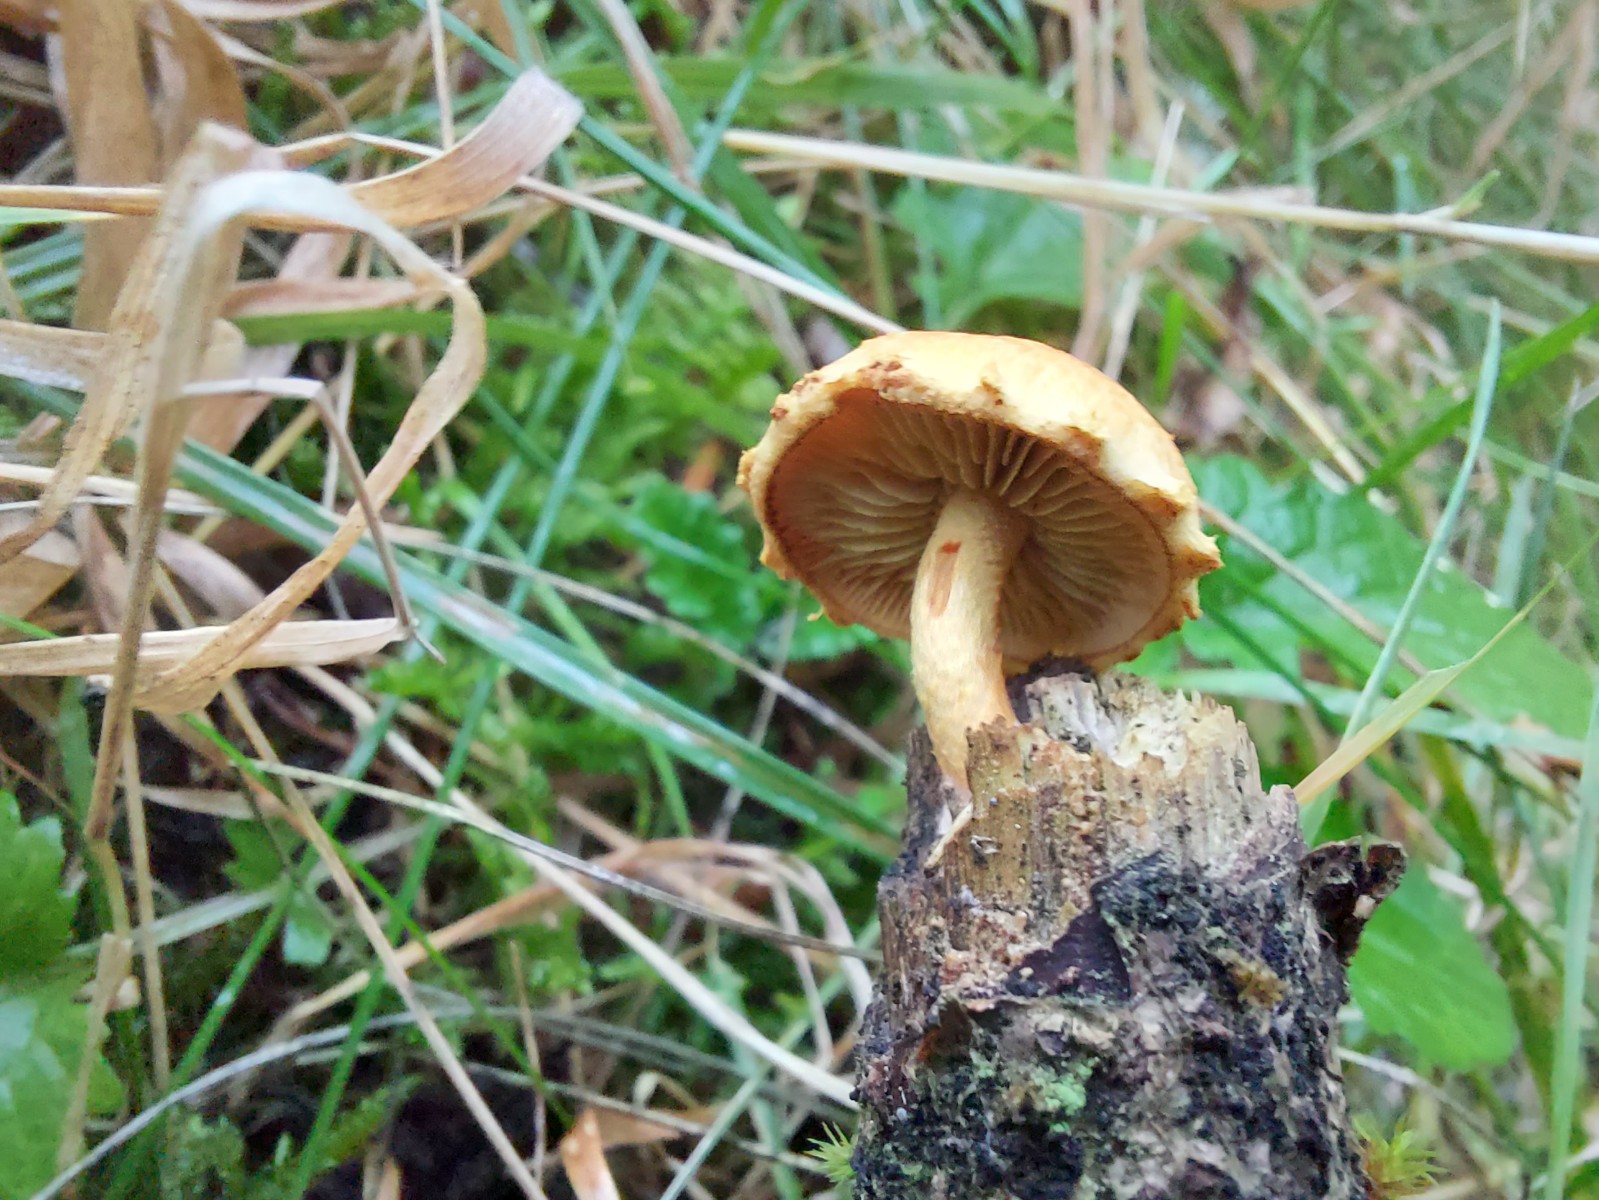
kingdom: Fungi
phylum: Basidiomycota
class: Agaricomycetes
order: Agaricales
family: Strophariaceae
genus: Pholiota
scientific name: Pholiota tuberculosa
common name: finskællet skælhat
